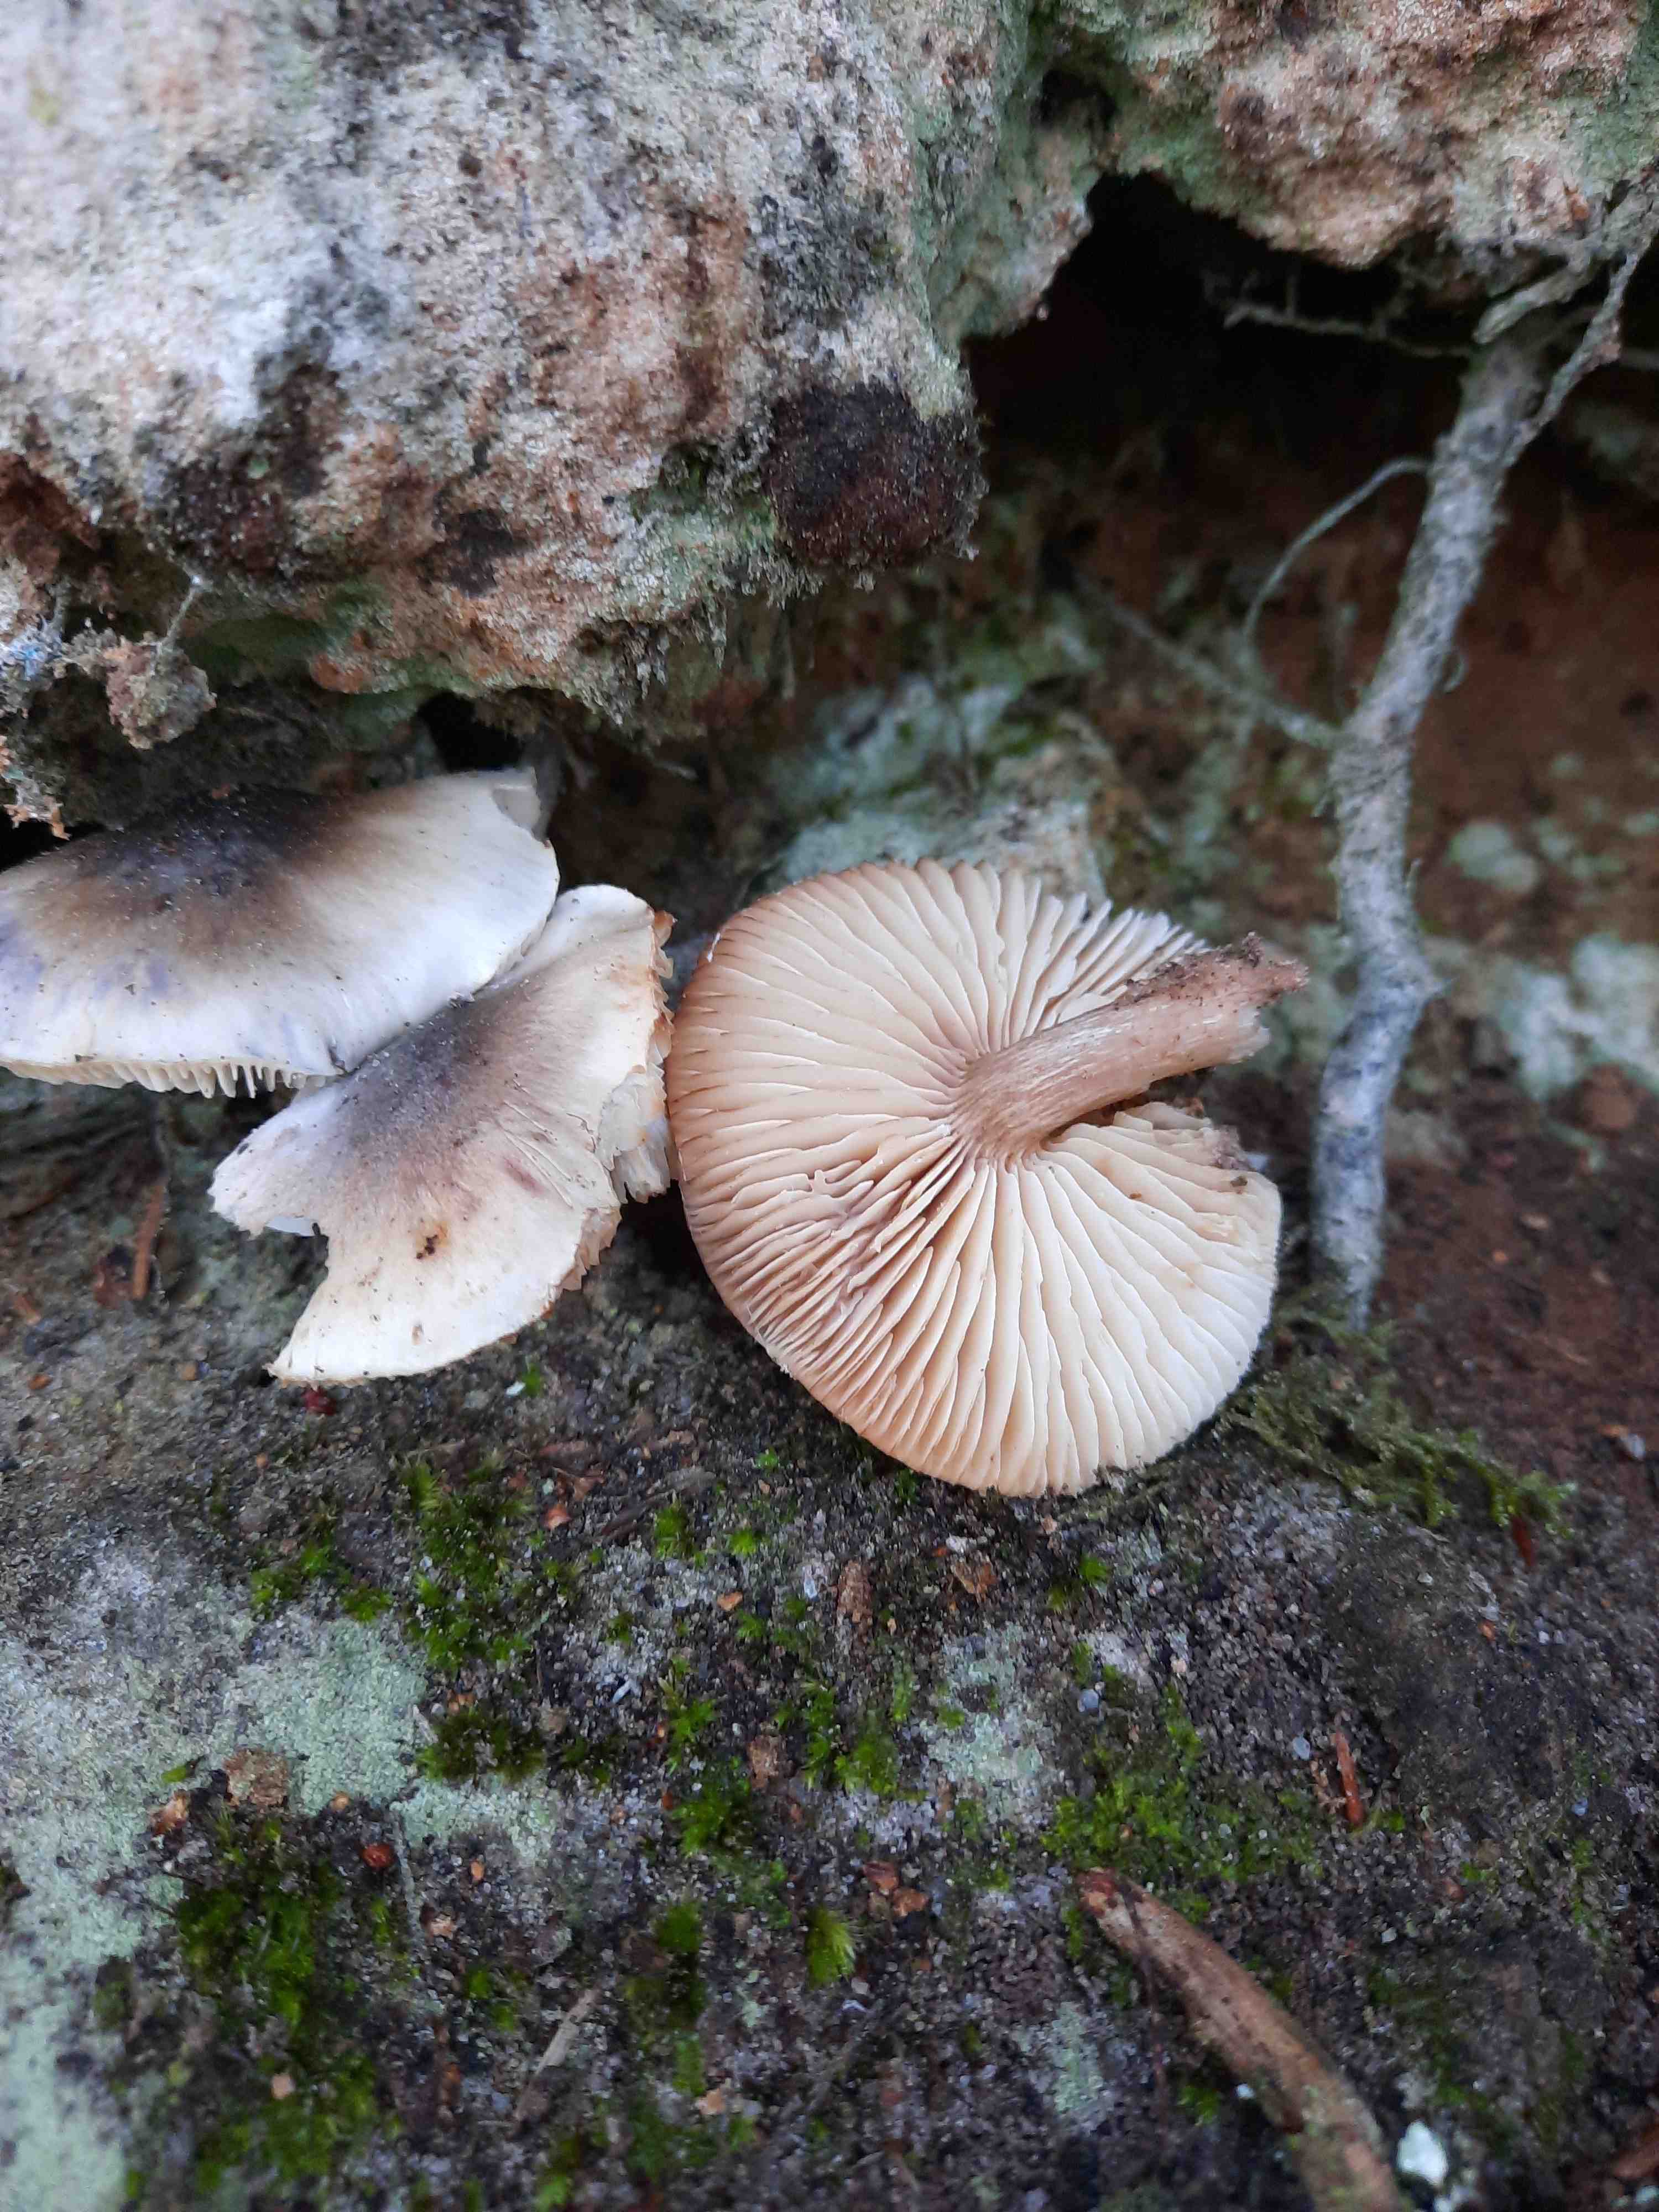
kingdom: Fungi
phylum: Basidiomycota
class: Agaricomycetes
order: Agaricales
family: Tricholomataceae
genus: Tricholoma
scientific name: Tricholoma saponaceum
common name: Soapy trich
